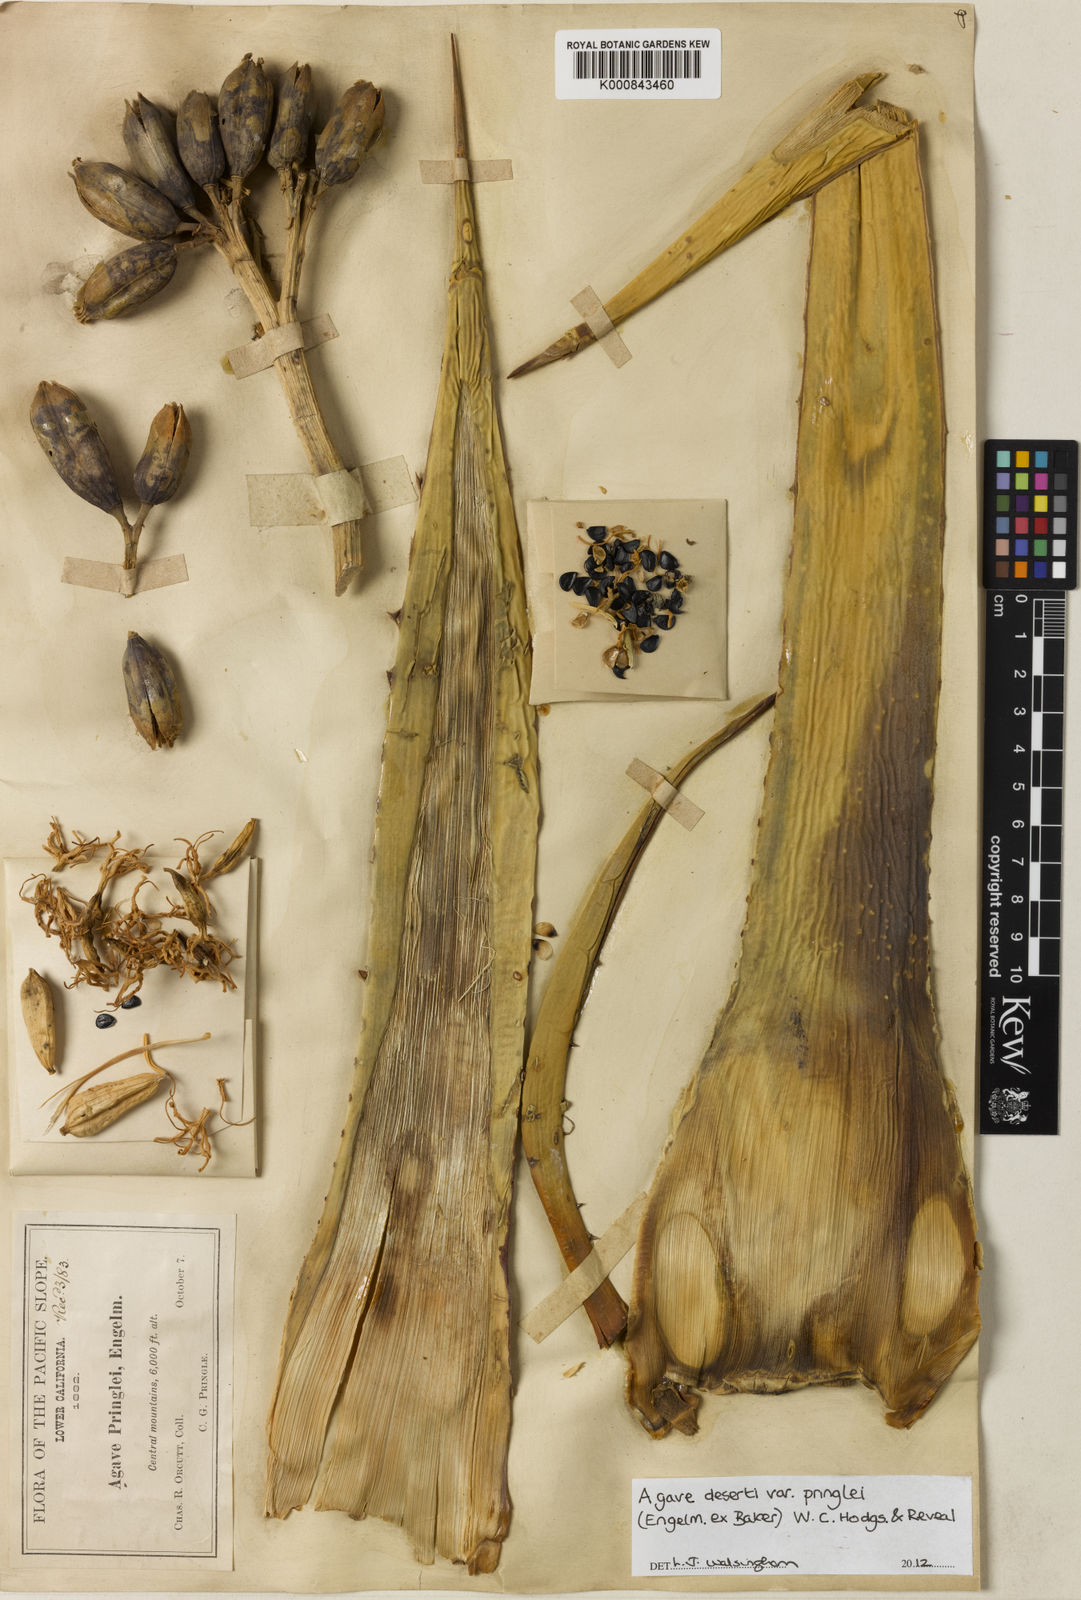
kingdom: Plantae
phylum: Tracheophyta
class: Liliopsida
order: Asparagales
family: Asparagaceae
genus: Agave
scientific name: Agave pringlei
